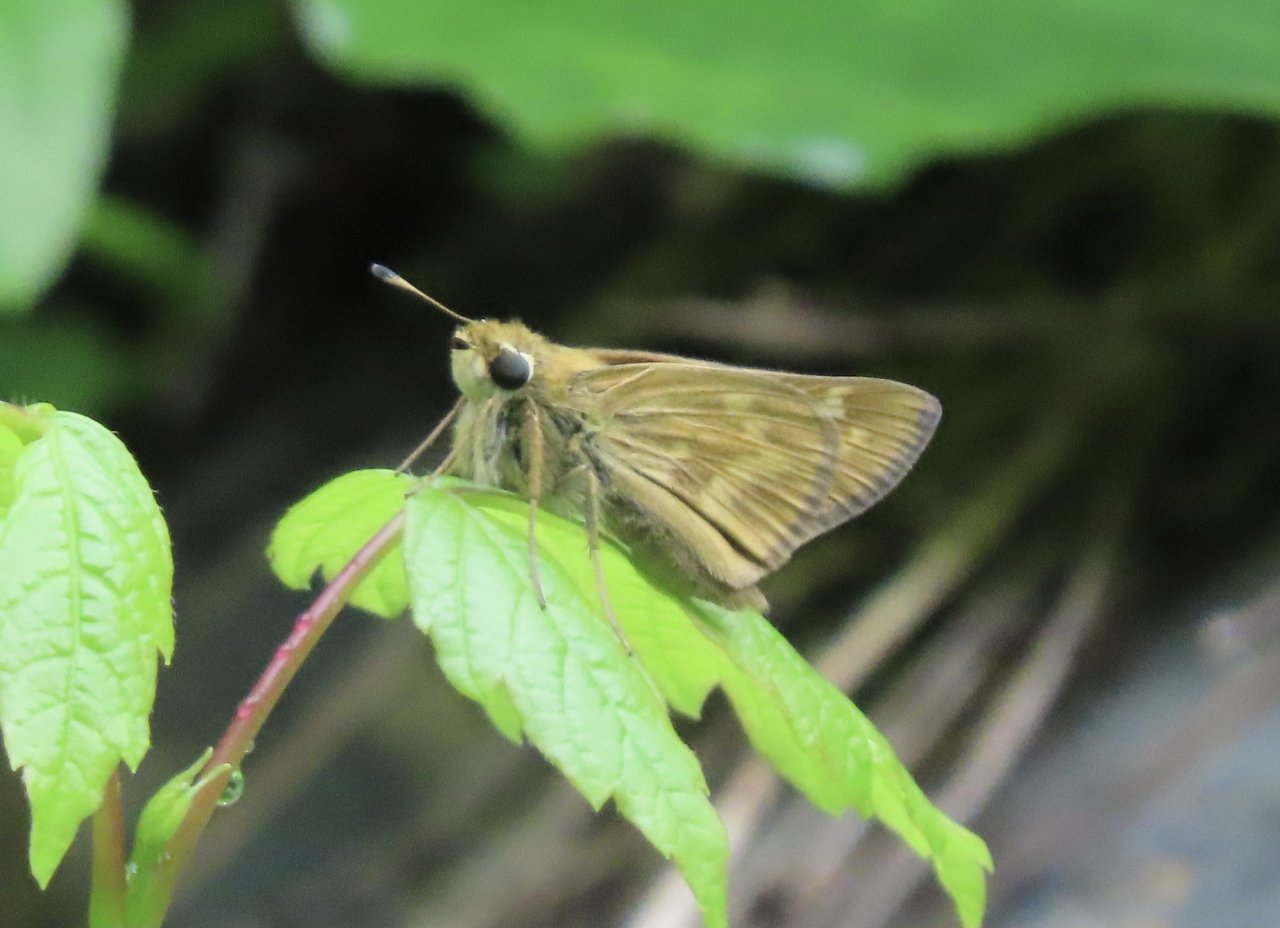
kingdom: Animalia
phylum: Arthropoda
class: Insecta
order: Lepidoptera
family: Hesperiidae
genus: Atalopedes
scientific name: Atalopedes campestris
